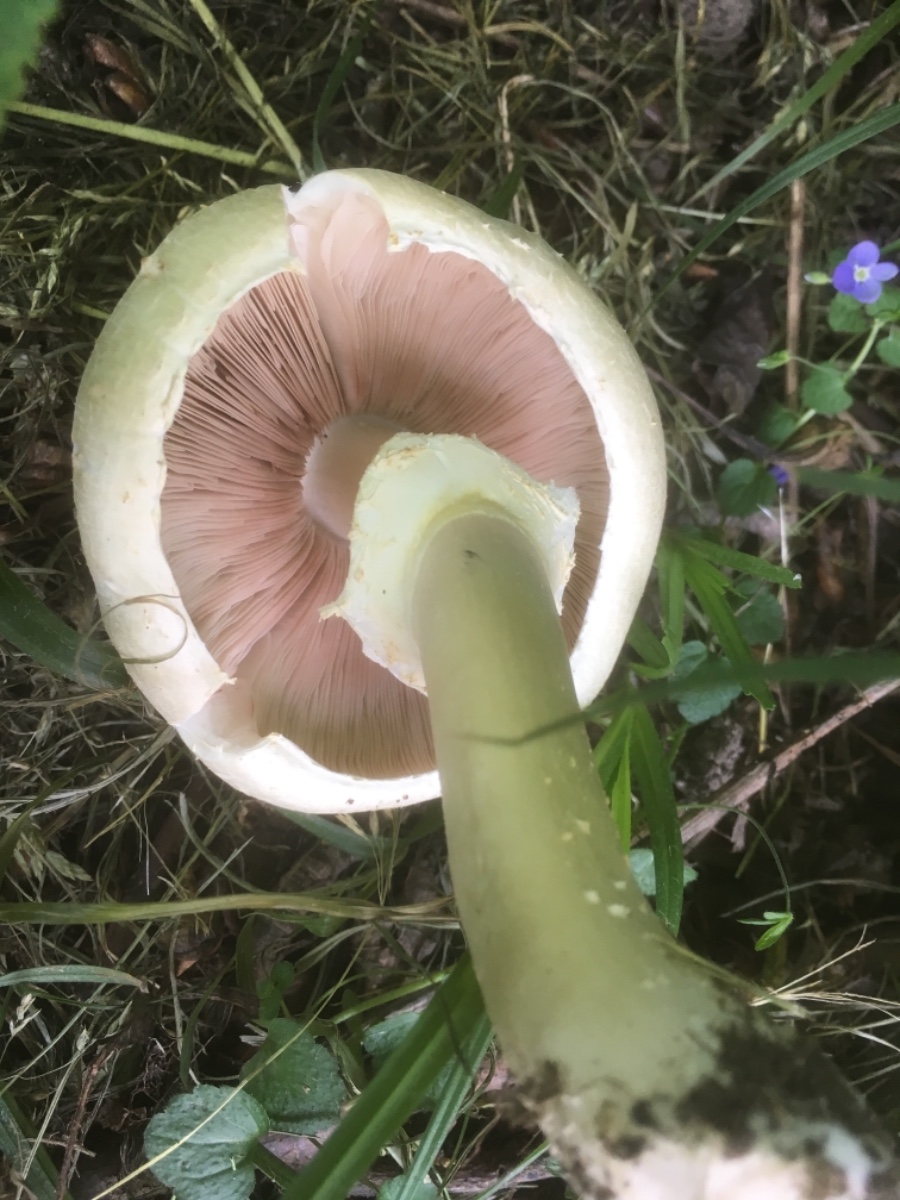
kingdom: Fungi
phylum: Basidiomycota
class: Agaricomycetes
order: Agaricales
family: Agaricaceae
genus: Agaricus
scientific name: Agaricus xanthodermus
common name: karbol-champignon
